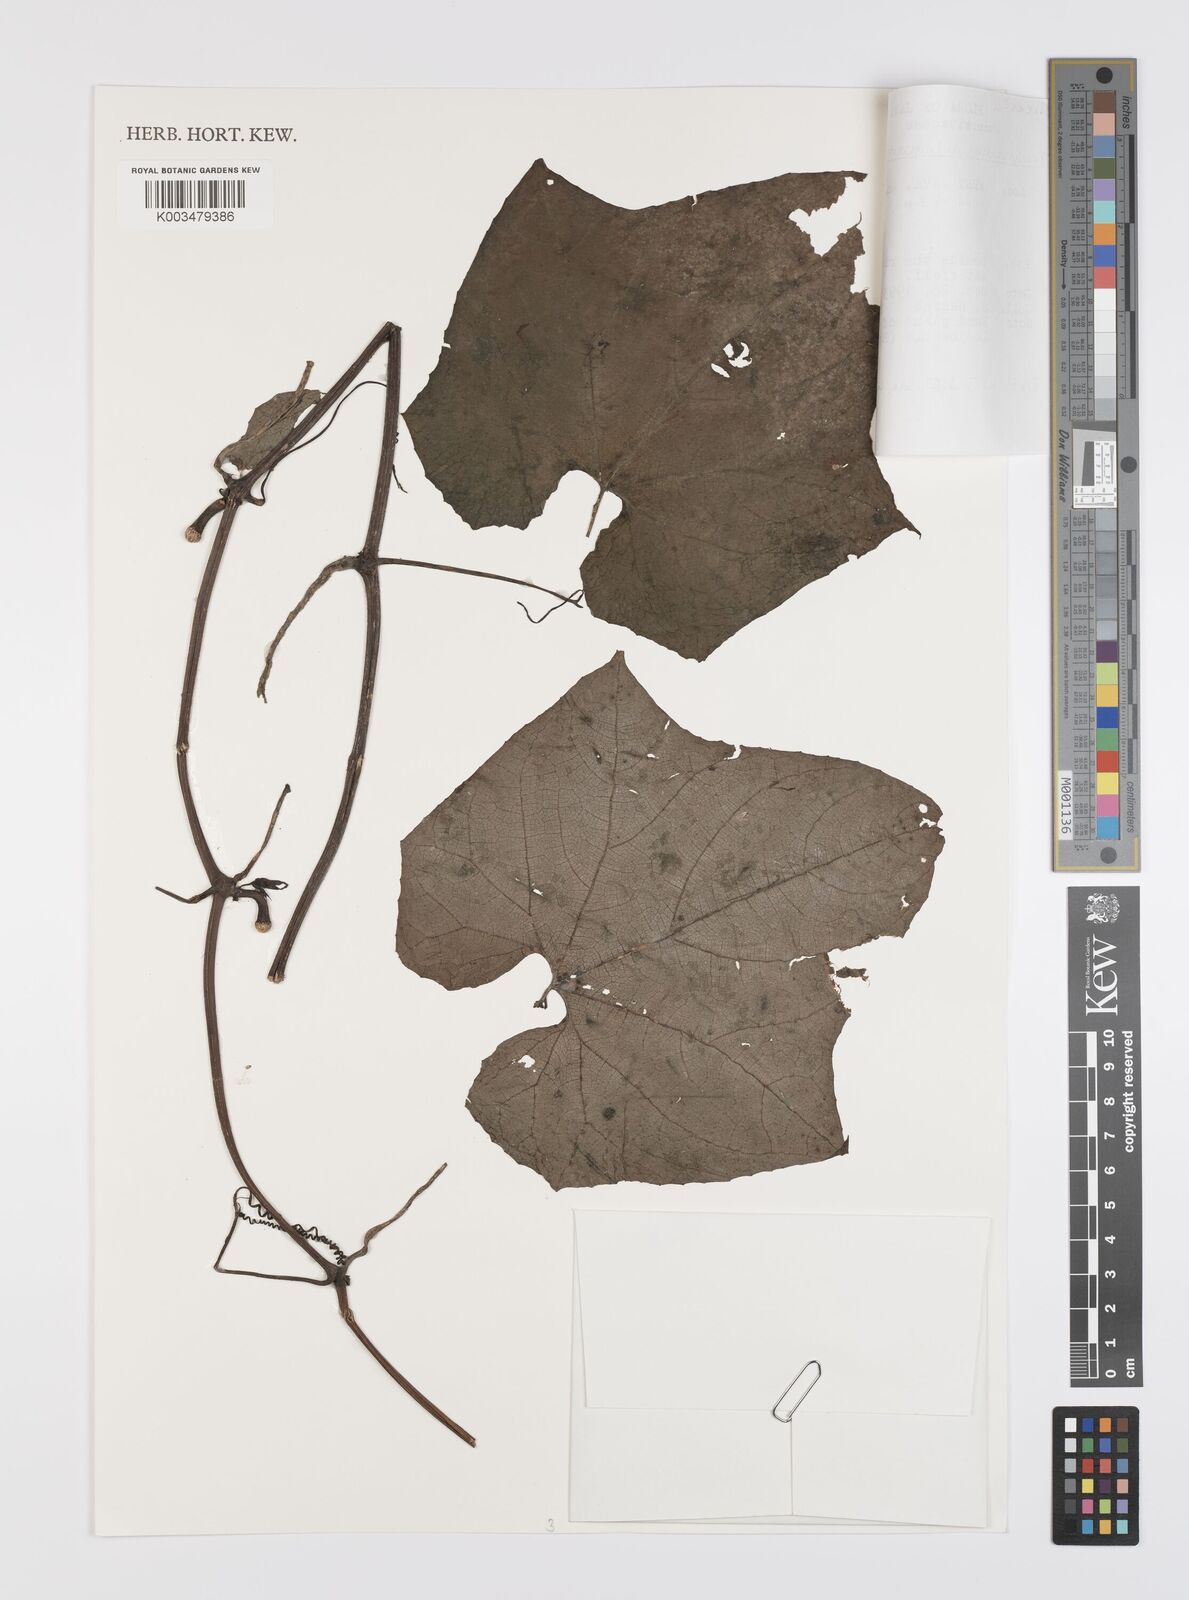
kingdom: Plantae
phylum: Tracheophyta
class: Magnoliopsida
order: Cucurbitales
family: Cucurbitaceae
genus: Trichosanthes
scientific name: Trichosanthes tricuspidata
